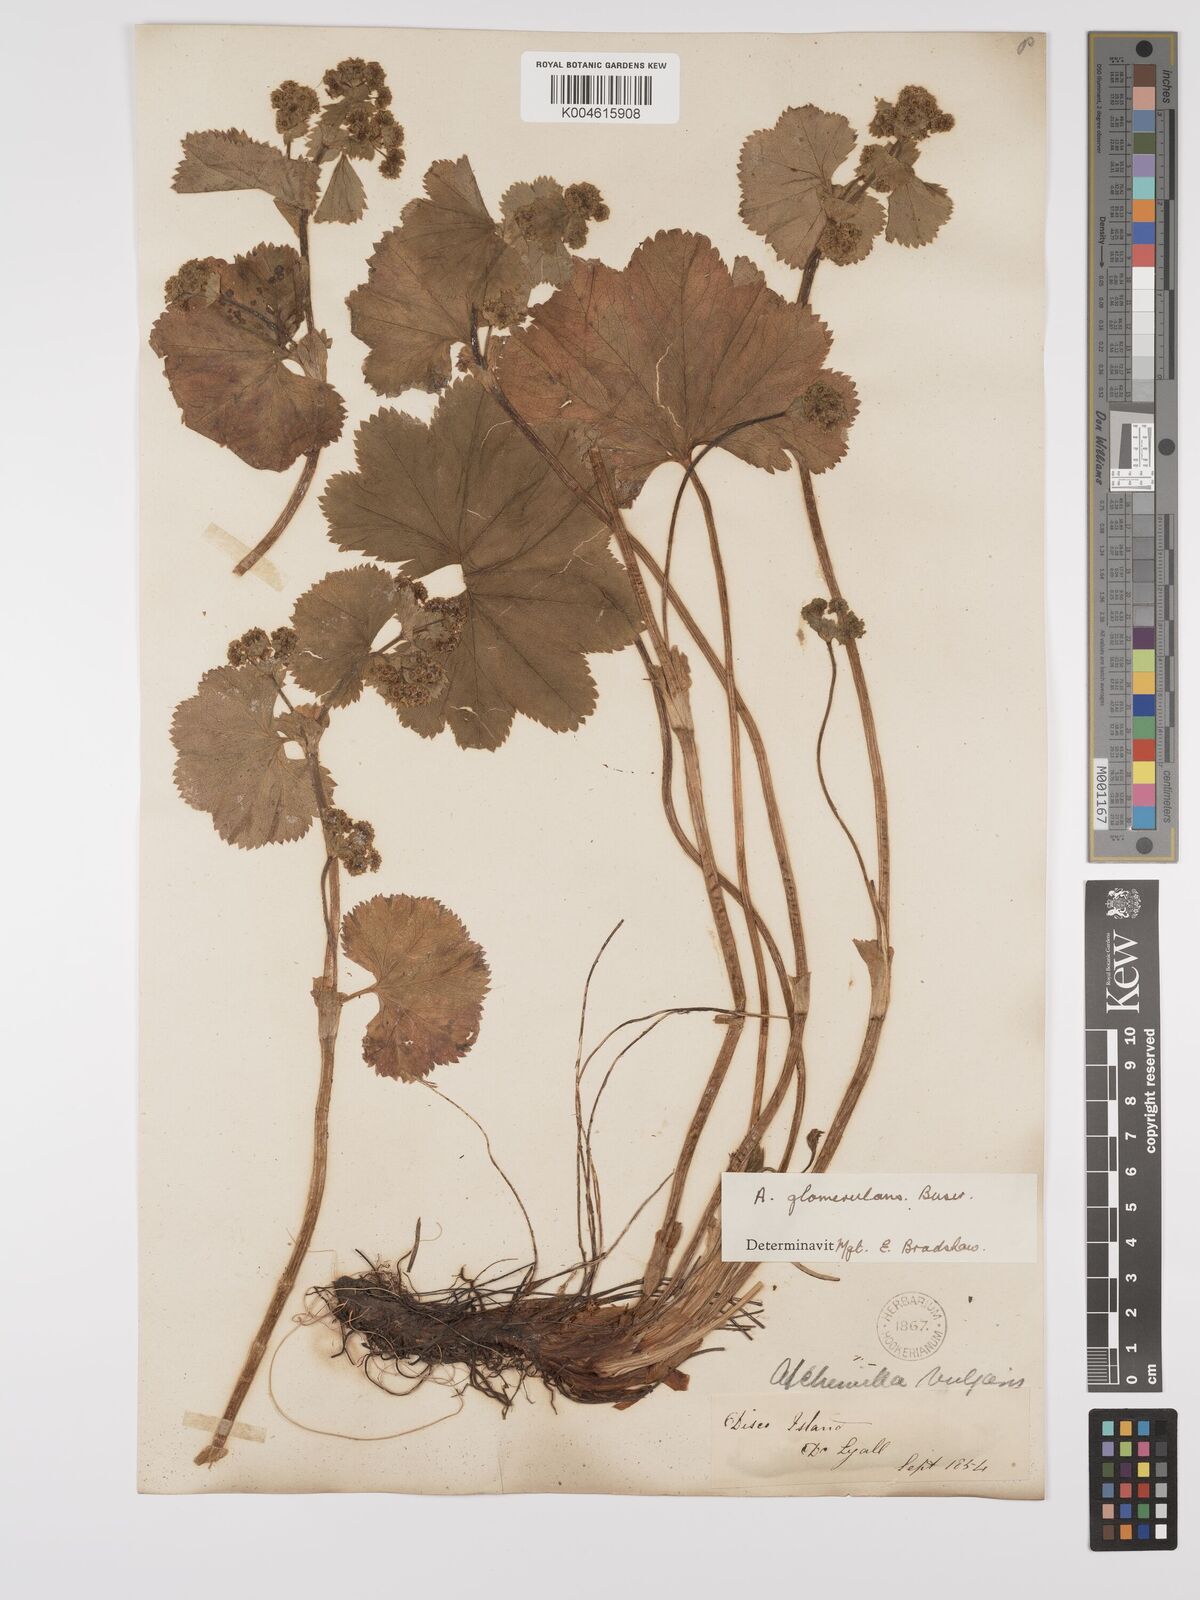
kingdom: Plantae
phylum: Tracheophyta
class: Magnoliopsida
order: Rosales
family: Rosaceae
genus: Alchemilla
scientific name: Alchemilla vulgaris
